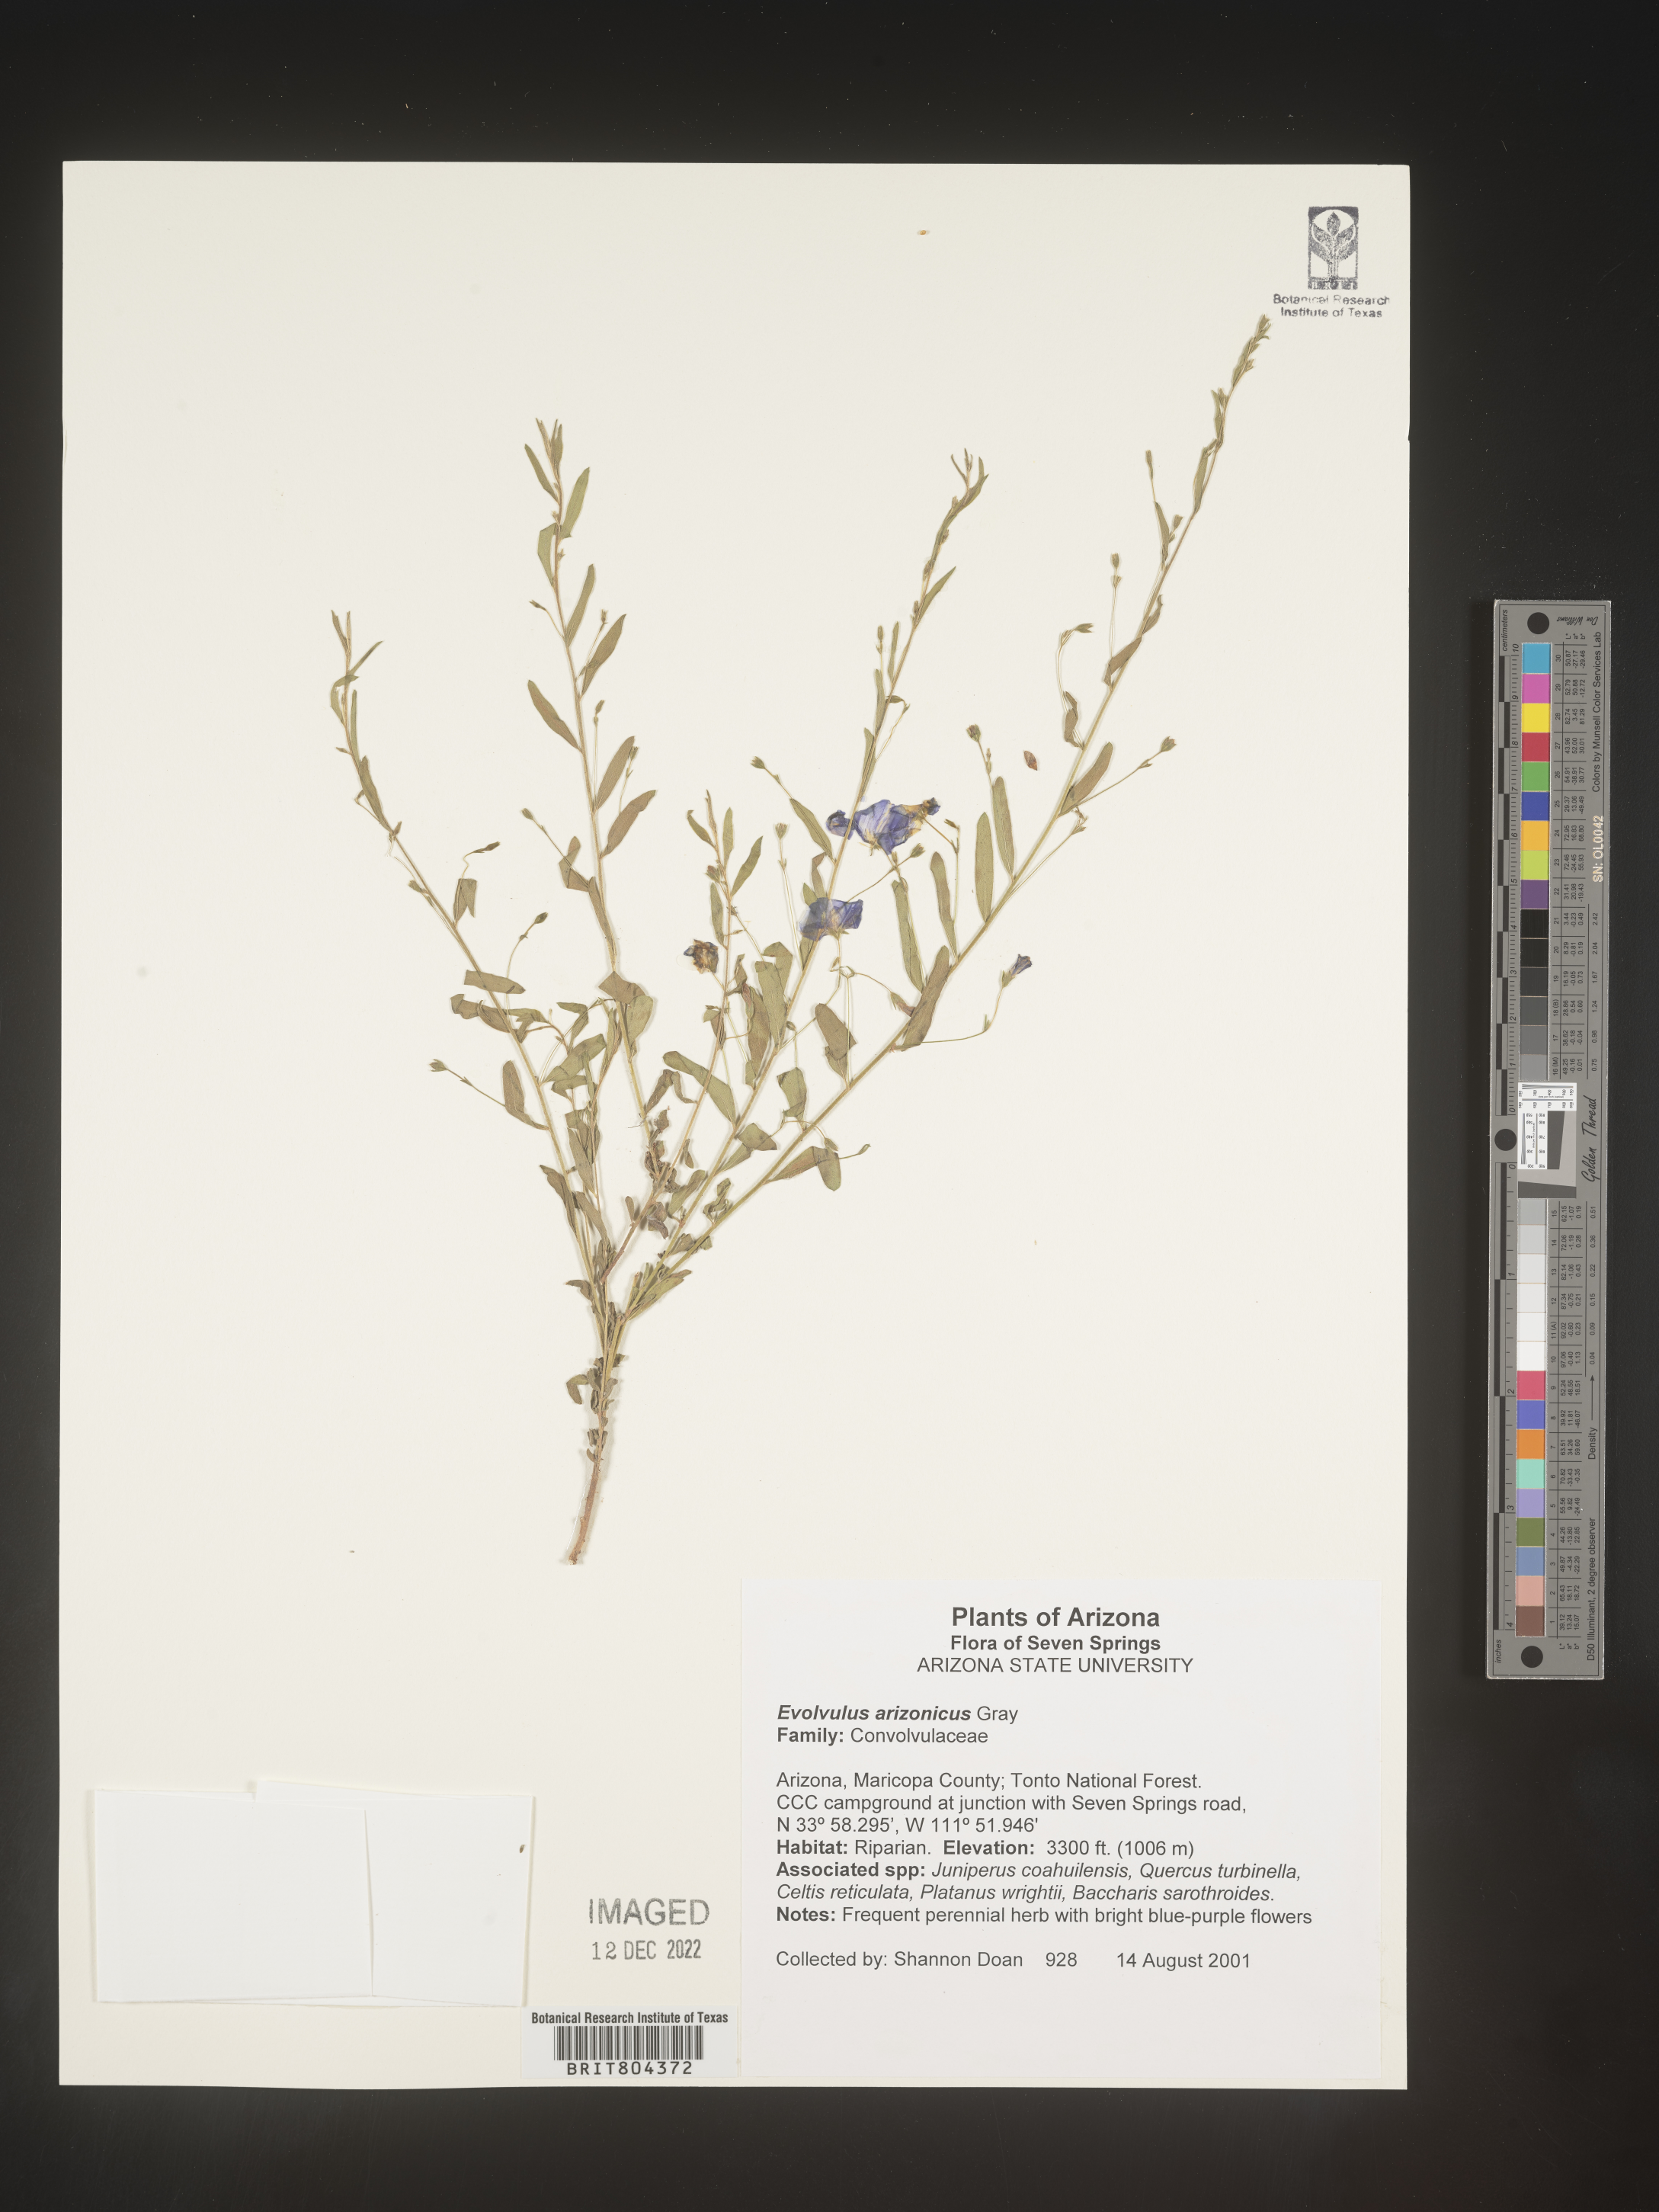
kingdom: Plantae
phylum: Tracheophyta
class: Magnoliopsida
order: Solanales
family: Convolvulaceae
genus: Evolvulus
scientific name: Evolvulus
